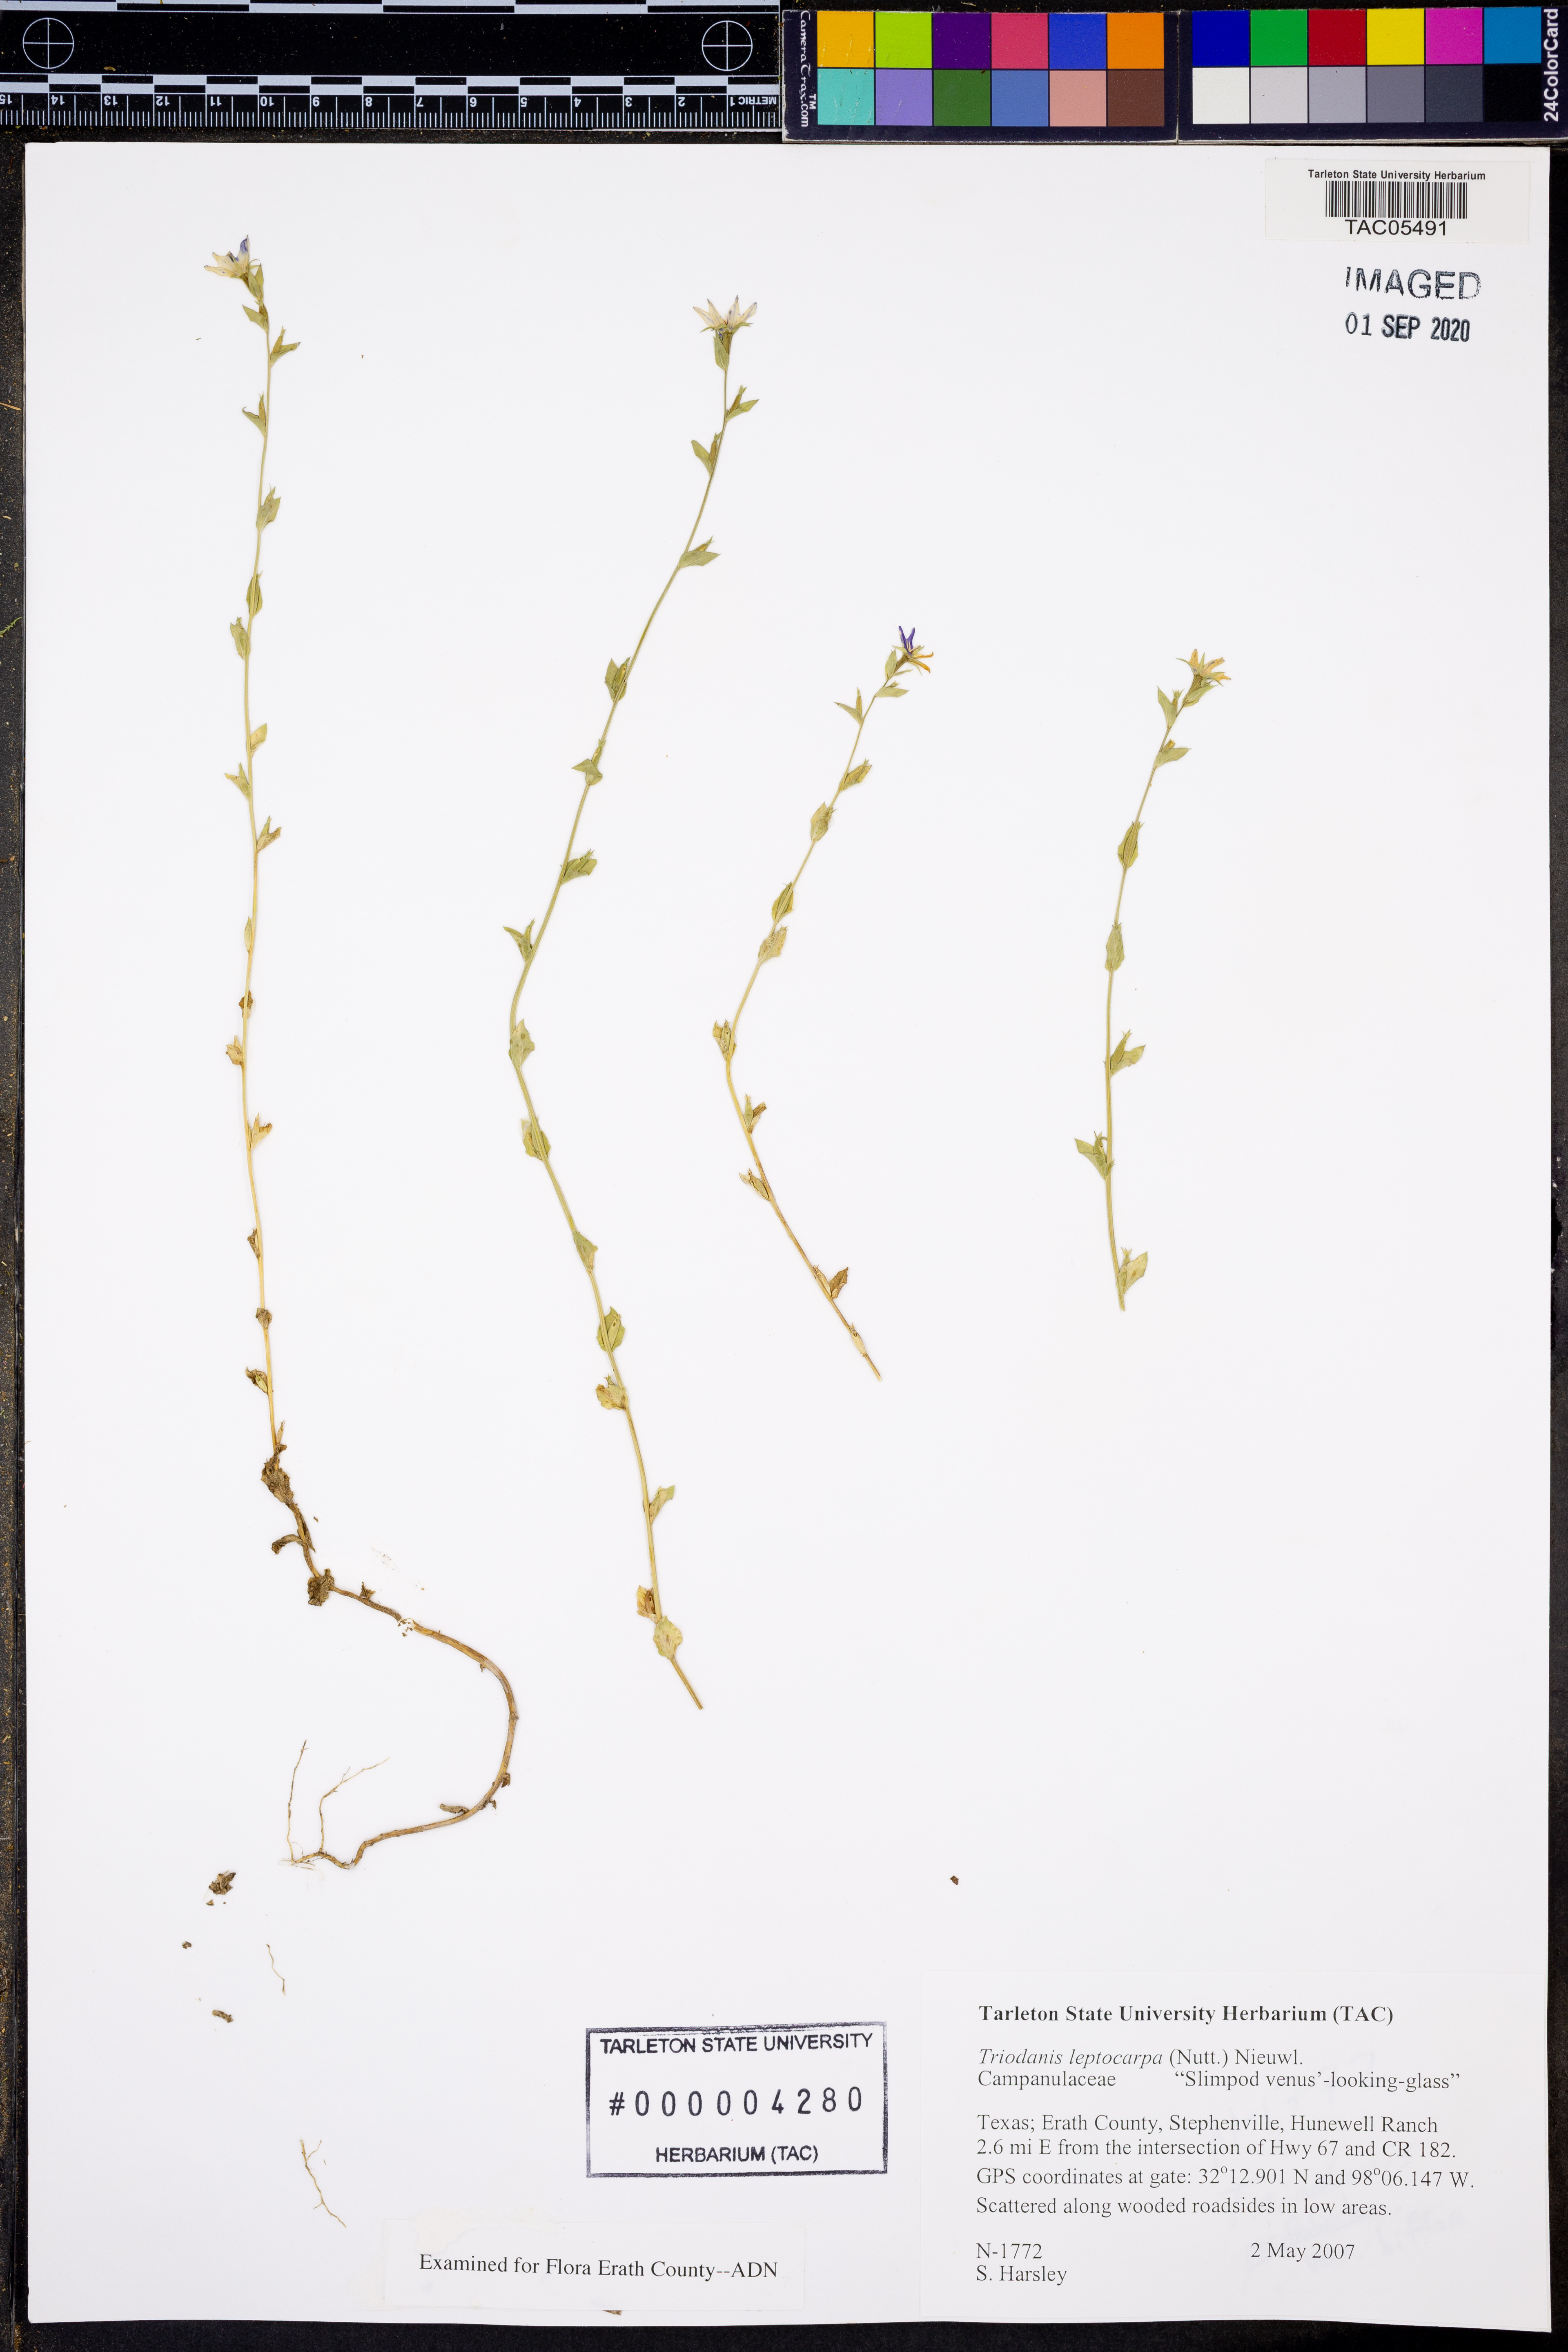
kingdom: Plantae
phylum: Tracheophyta
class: Magnoliopsida
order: Asterales
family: Campanulaceae
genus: Triodanis
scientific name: Triodanis leptocarpa
